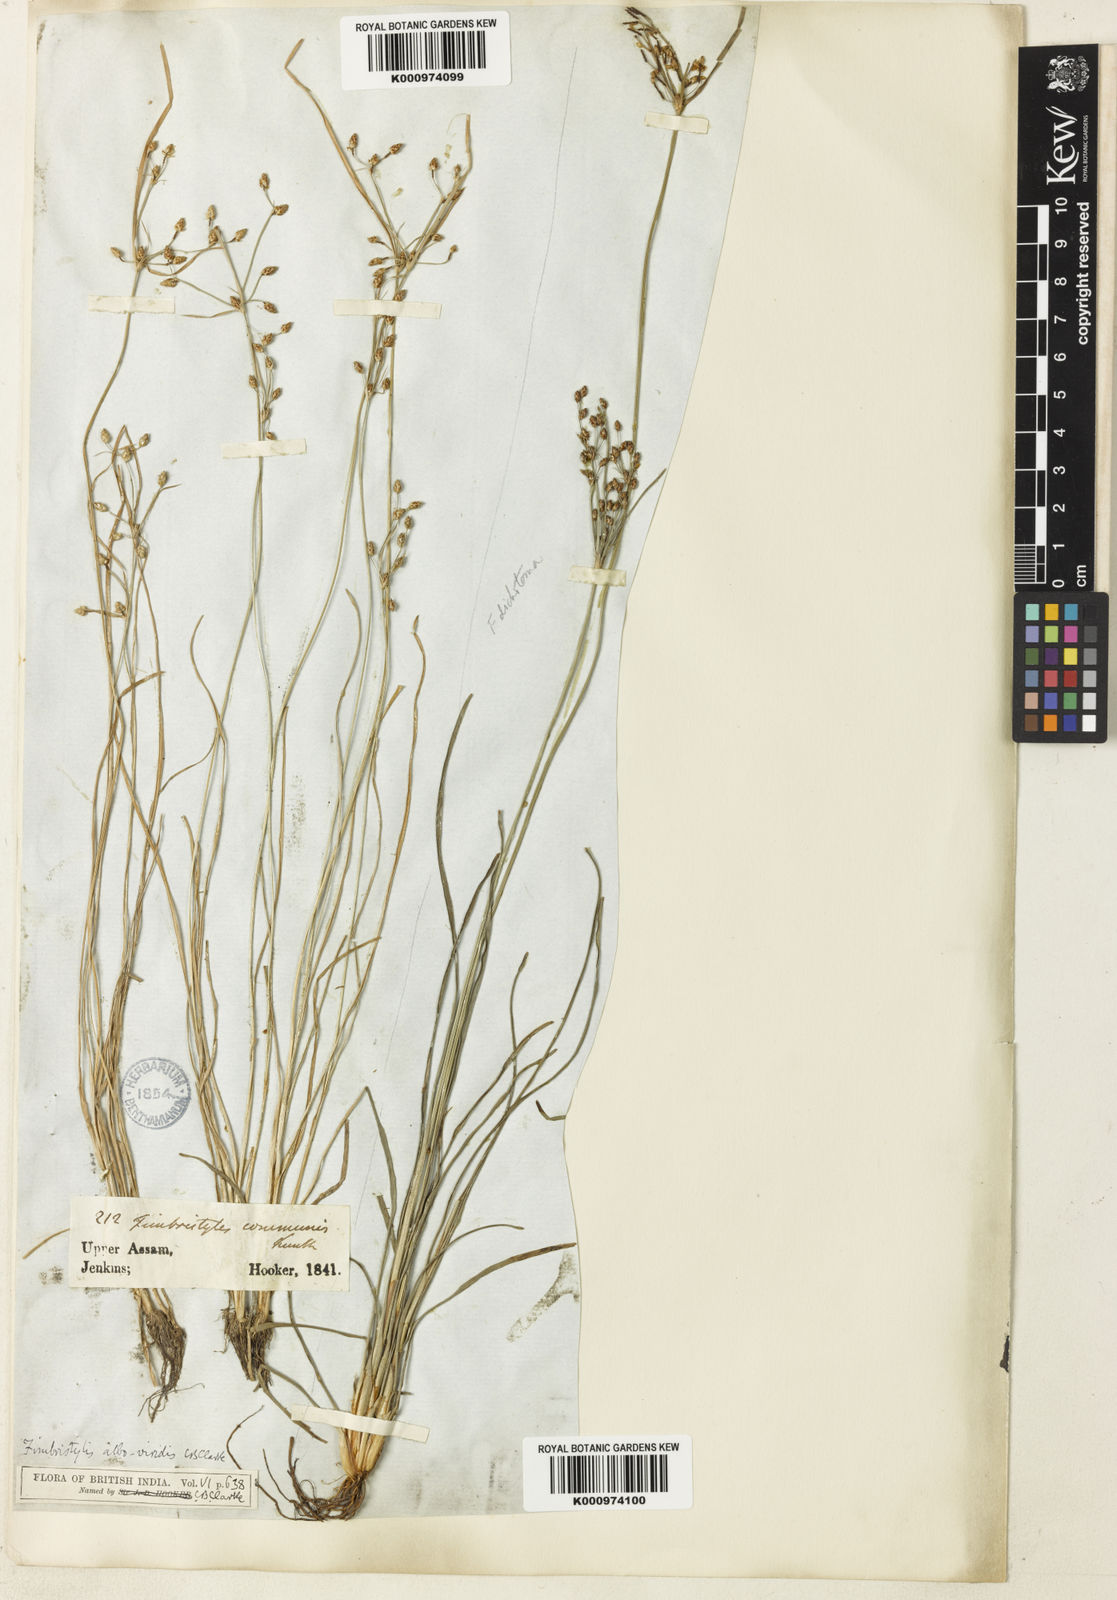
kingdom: Plantae
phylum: Tracheophyta
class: Liliopsida
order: Poales
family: Cyperaceae
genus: Fimbristylis
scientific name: Fimbristylis alboviridis
